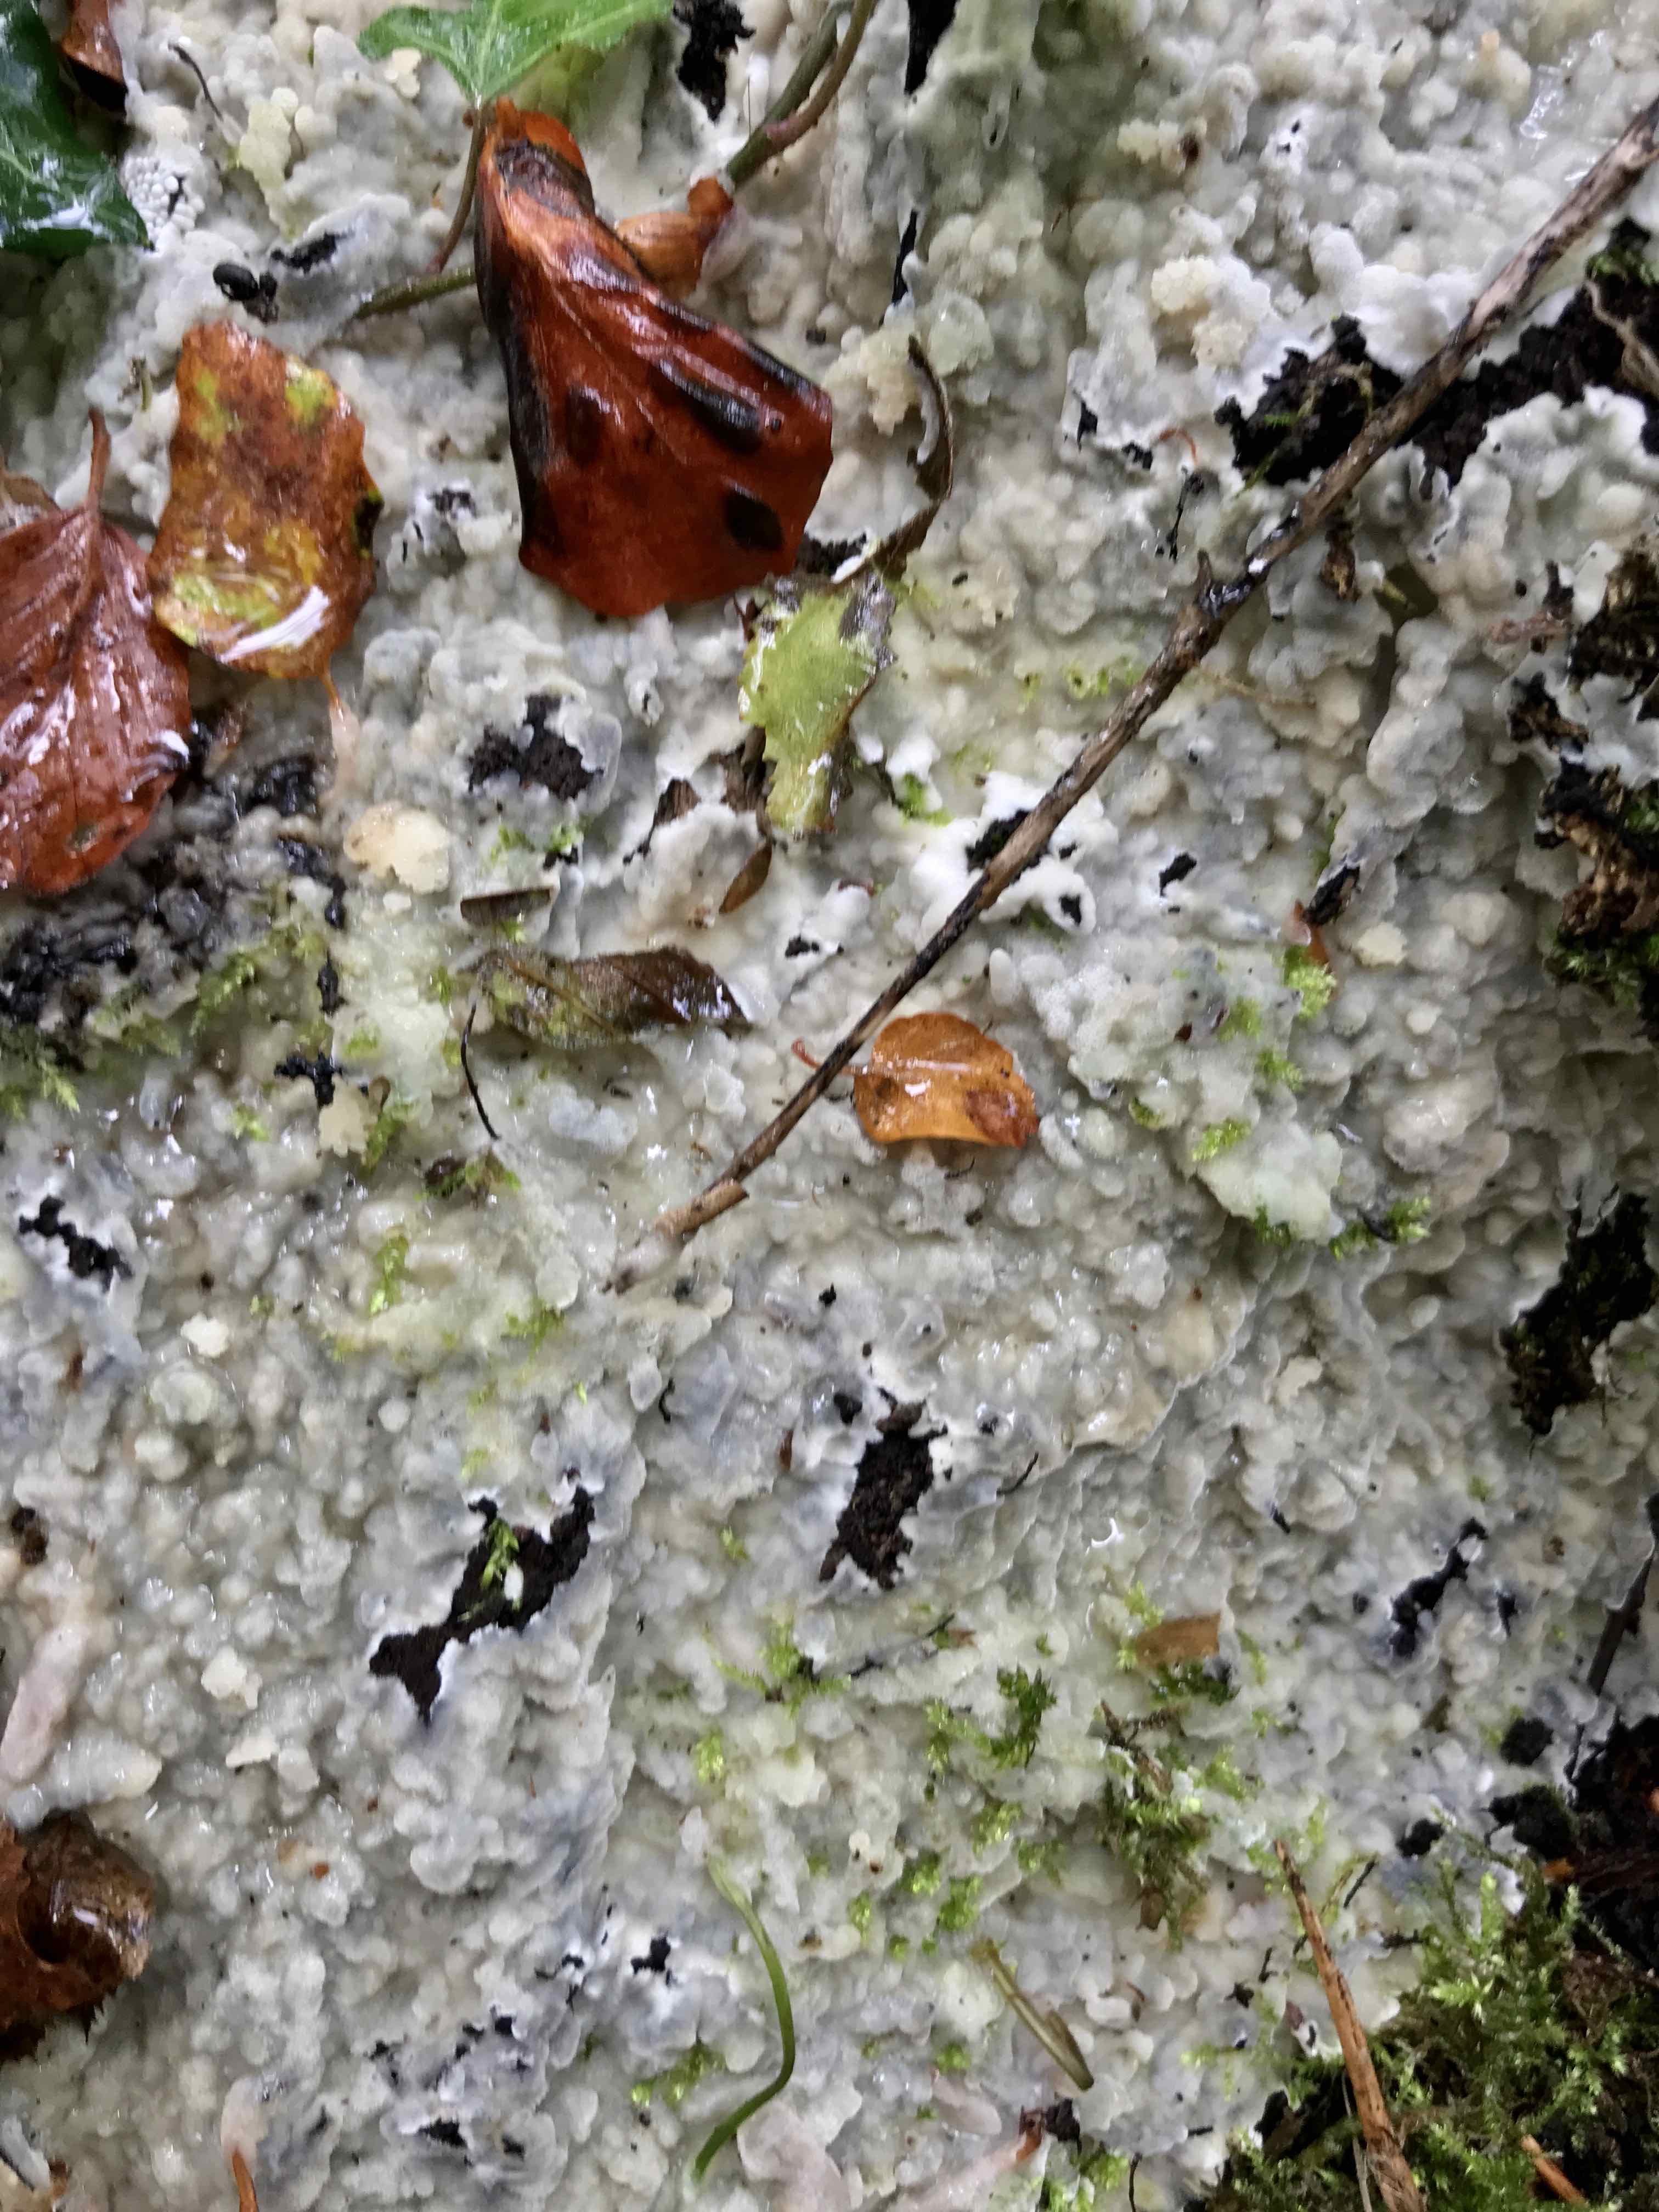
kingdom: Fungi
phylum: Basidiomycota
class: Agaricomycetes
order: Polyporales
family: Meruliaceae
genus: Physisporinus
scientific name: Physisporinus vitreus
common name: mastesvamp
